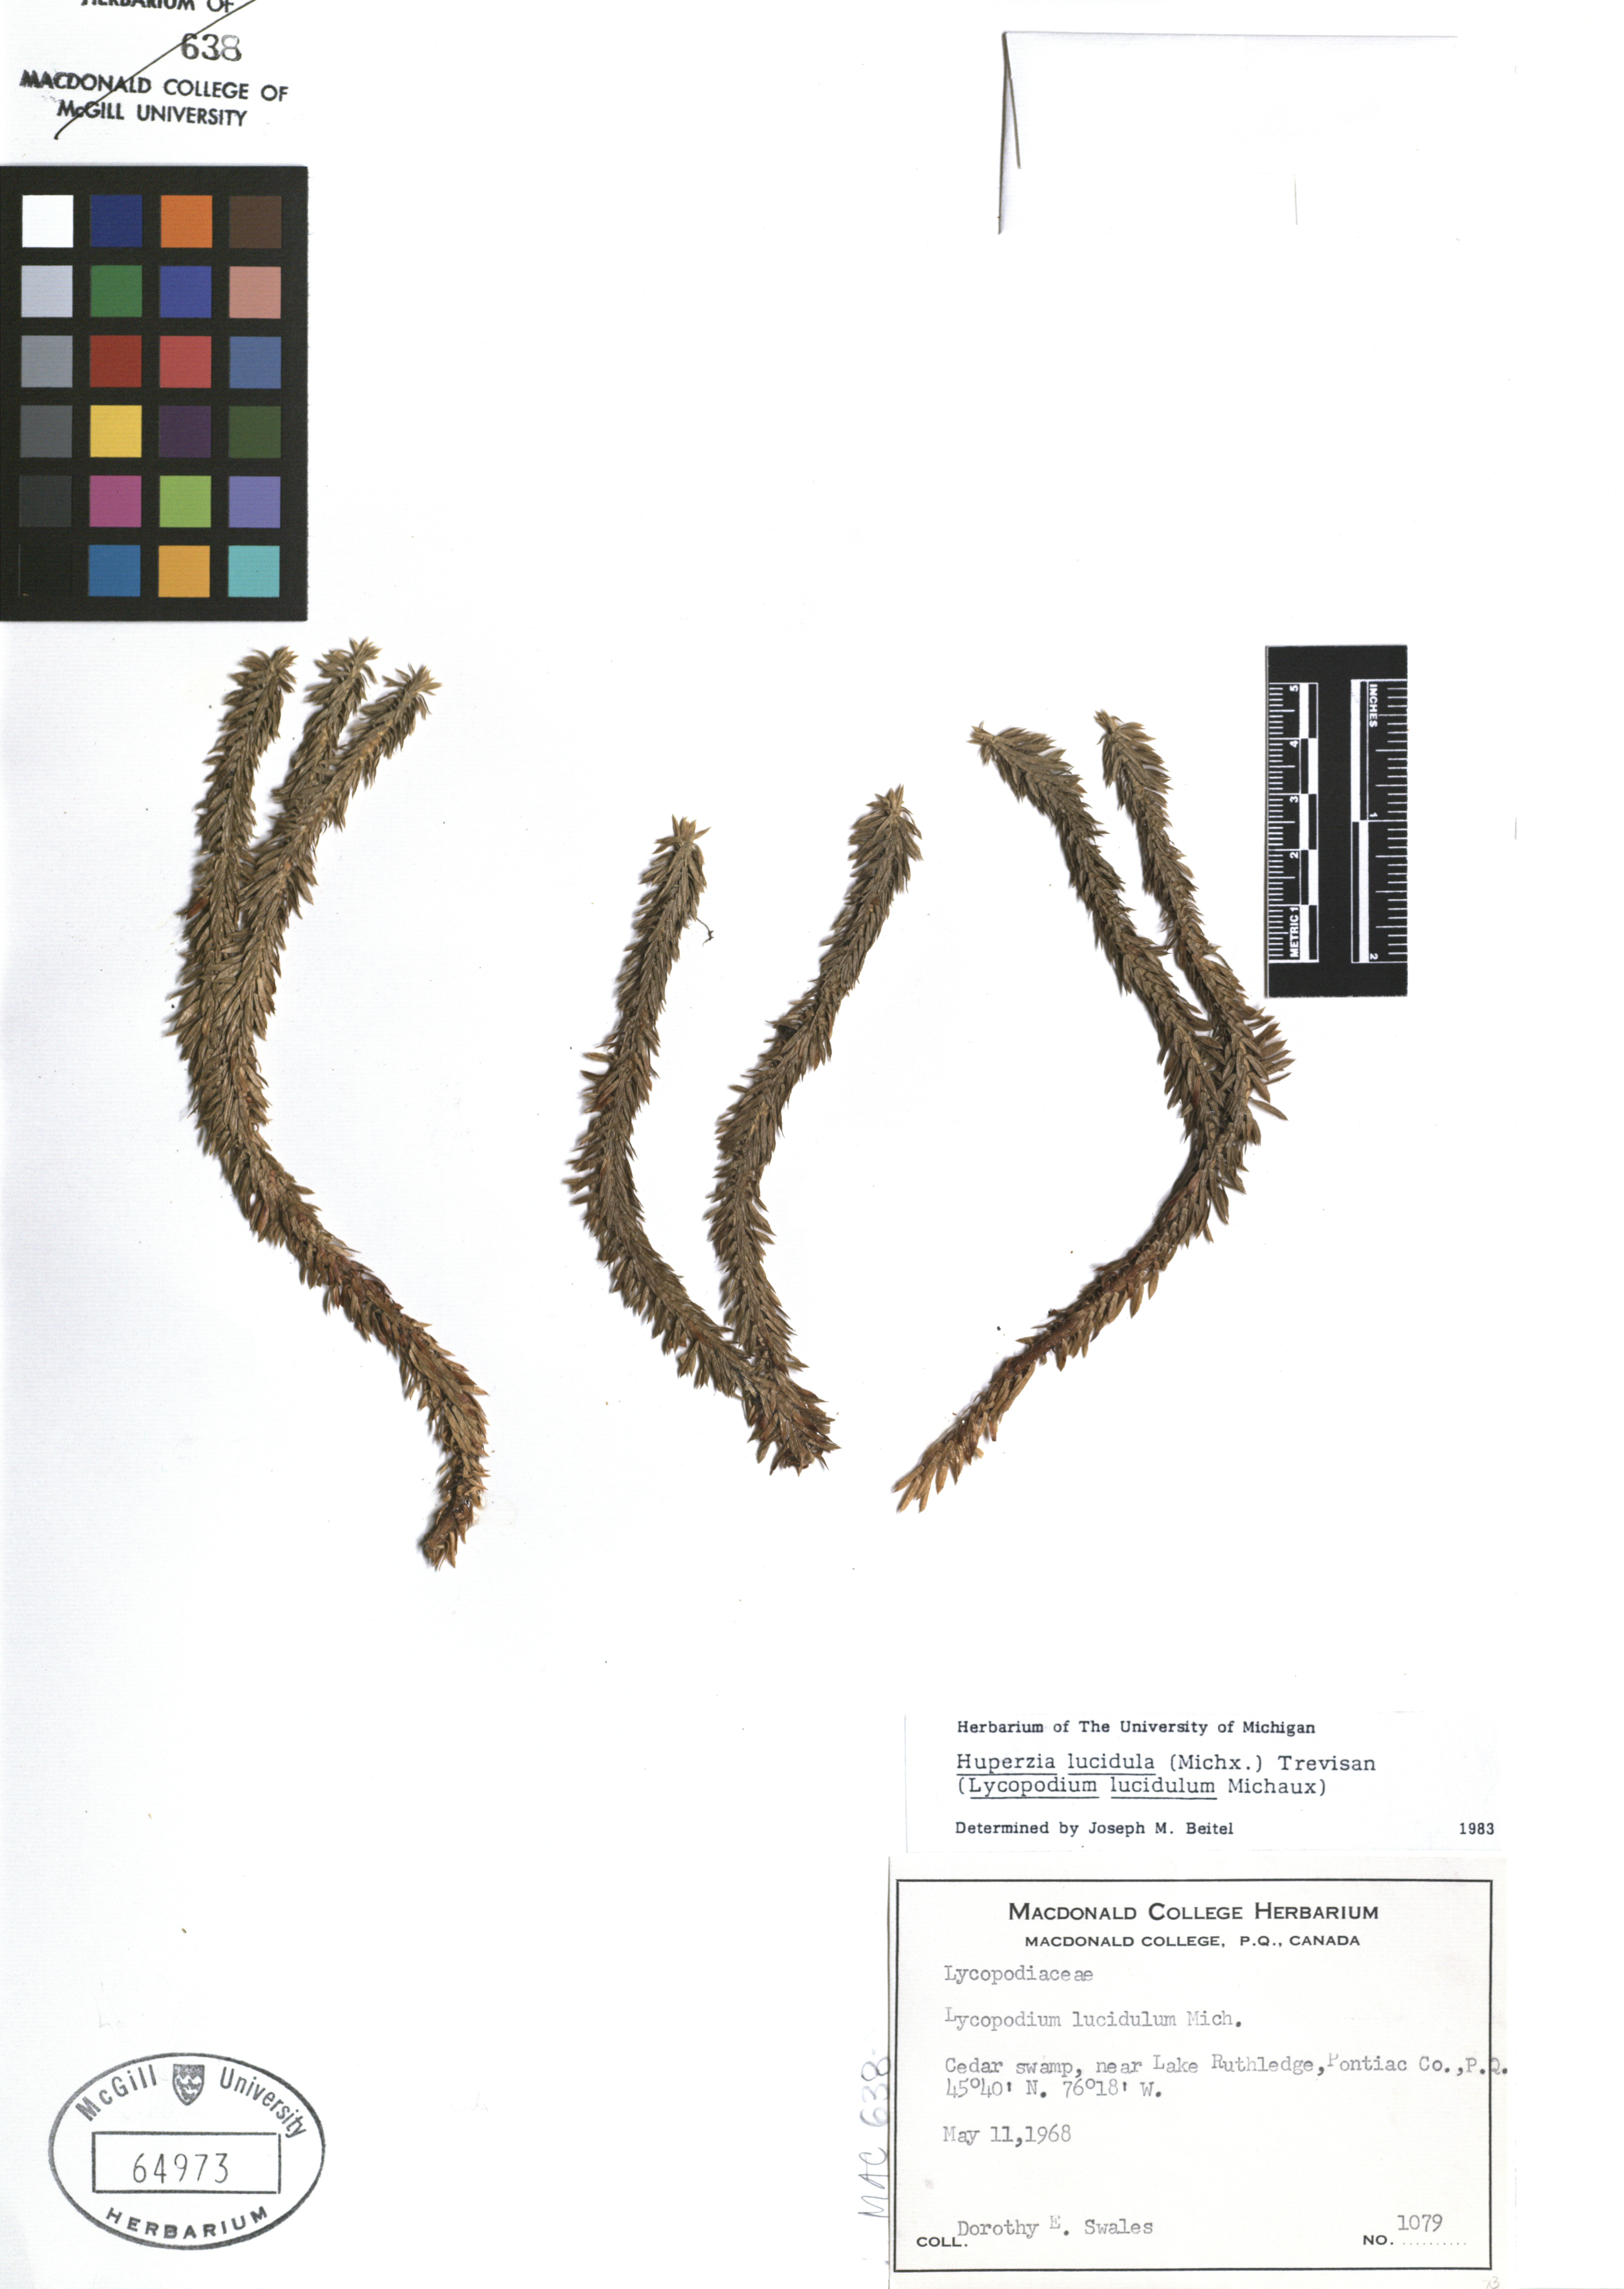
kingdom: Plantae
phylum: Tracheophyta
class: Lycopodiopsida
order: Lycopodiales
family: Lycopodiaceae
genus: Huperzia
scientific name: Huperzia lucidula
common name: Shining clubmoss
